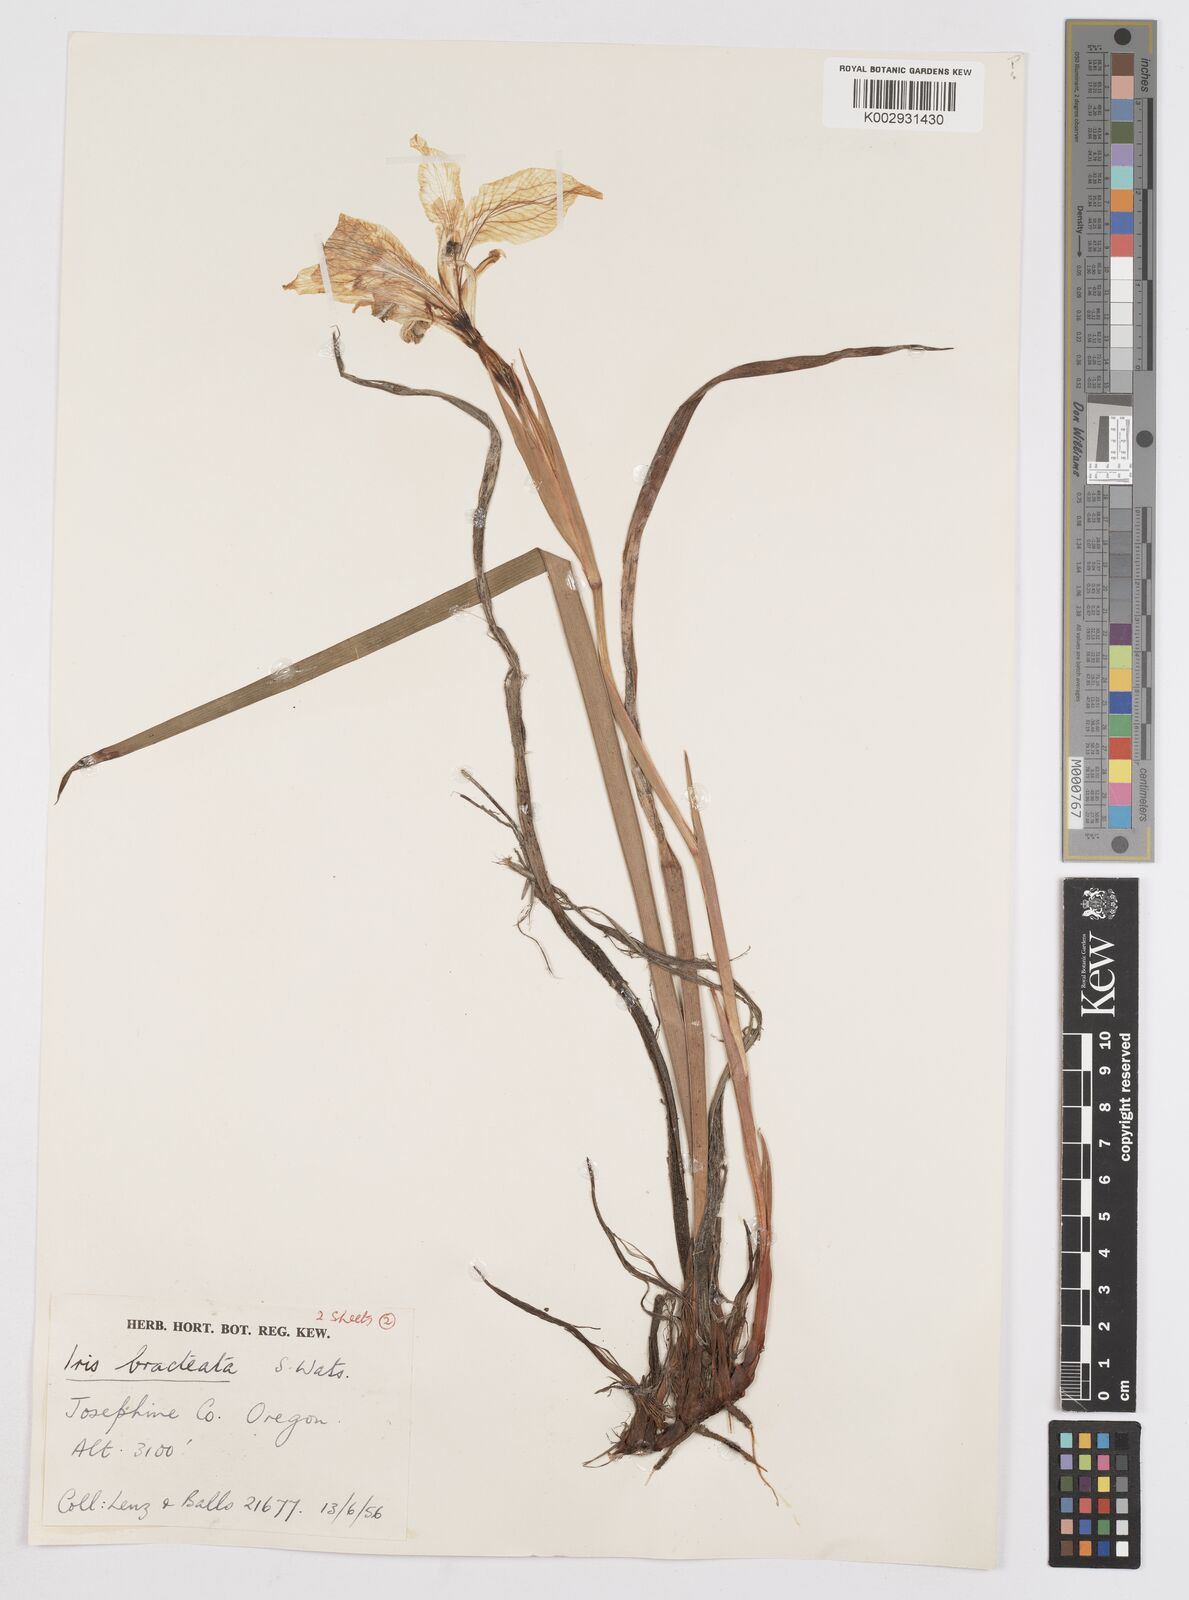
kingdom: Plantae
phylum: Tracheophyta
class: Liliopsida
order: Asparagales
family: Iridaceae
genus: Iris
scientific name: Iris bracteata
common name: Siskiyou iris
